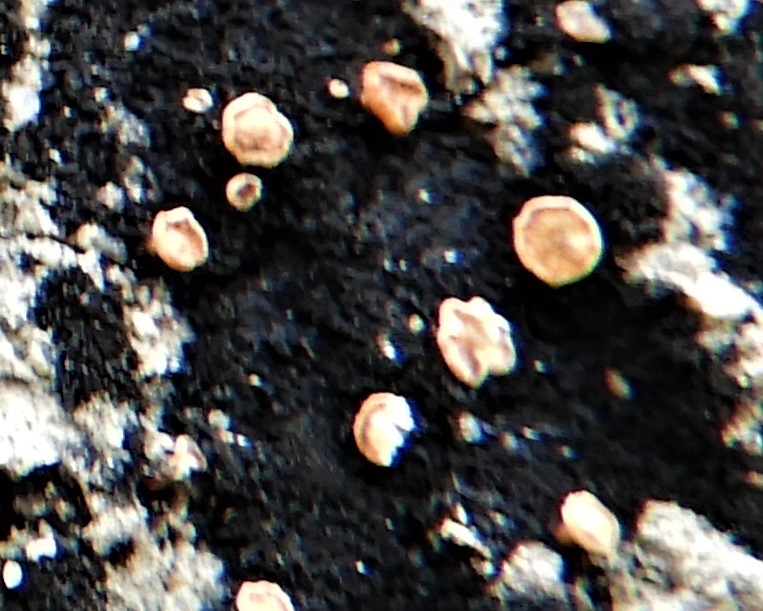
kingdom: Fungi
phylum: Ascomycota
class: Leotiomycetes
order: Helotiales
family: Helotiaceae
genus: Bispora
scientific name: Bispora pallescens
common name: måtte-snitskive
